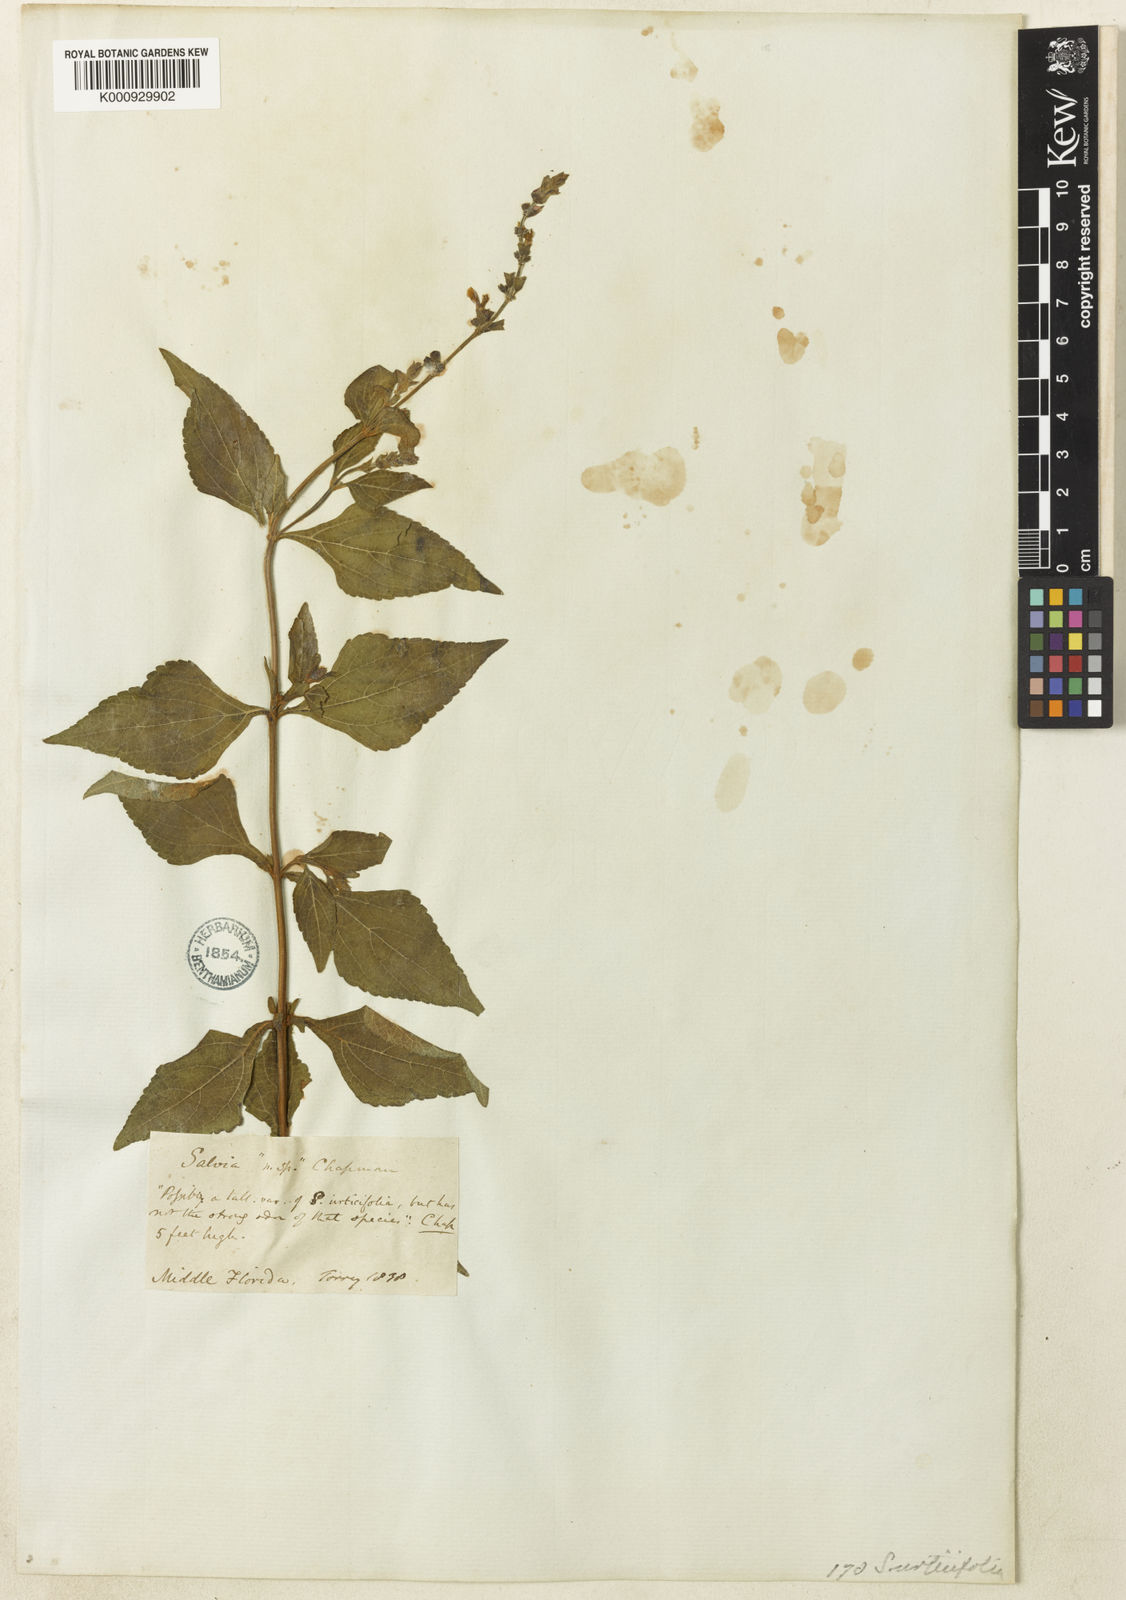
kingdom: Plantae
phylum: Tracheophyta
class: Magnoliopsida
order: Lamiales
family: Lamiaceae
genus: Salvia
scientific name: Salvia urticifolia
